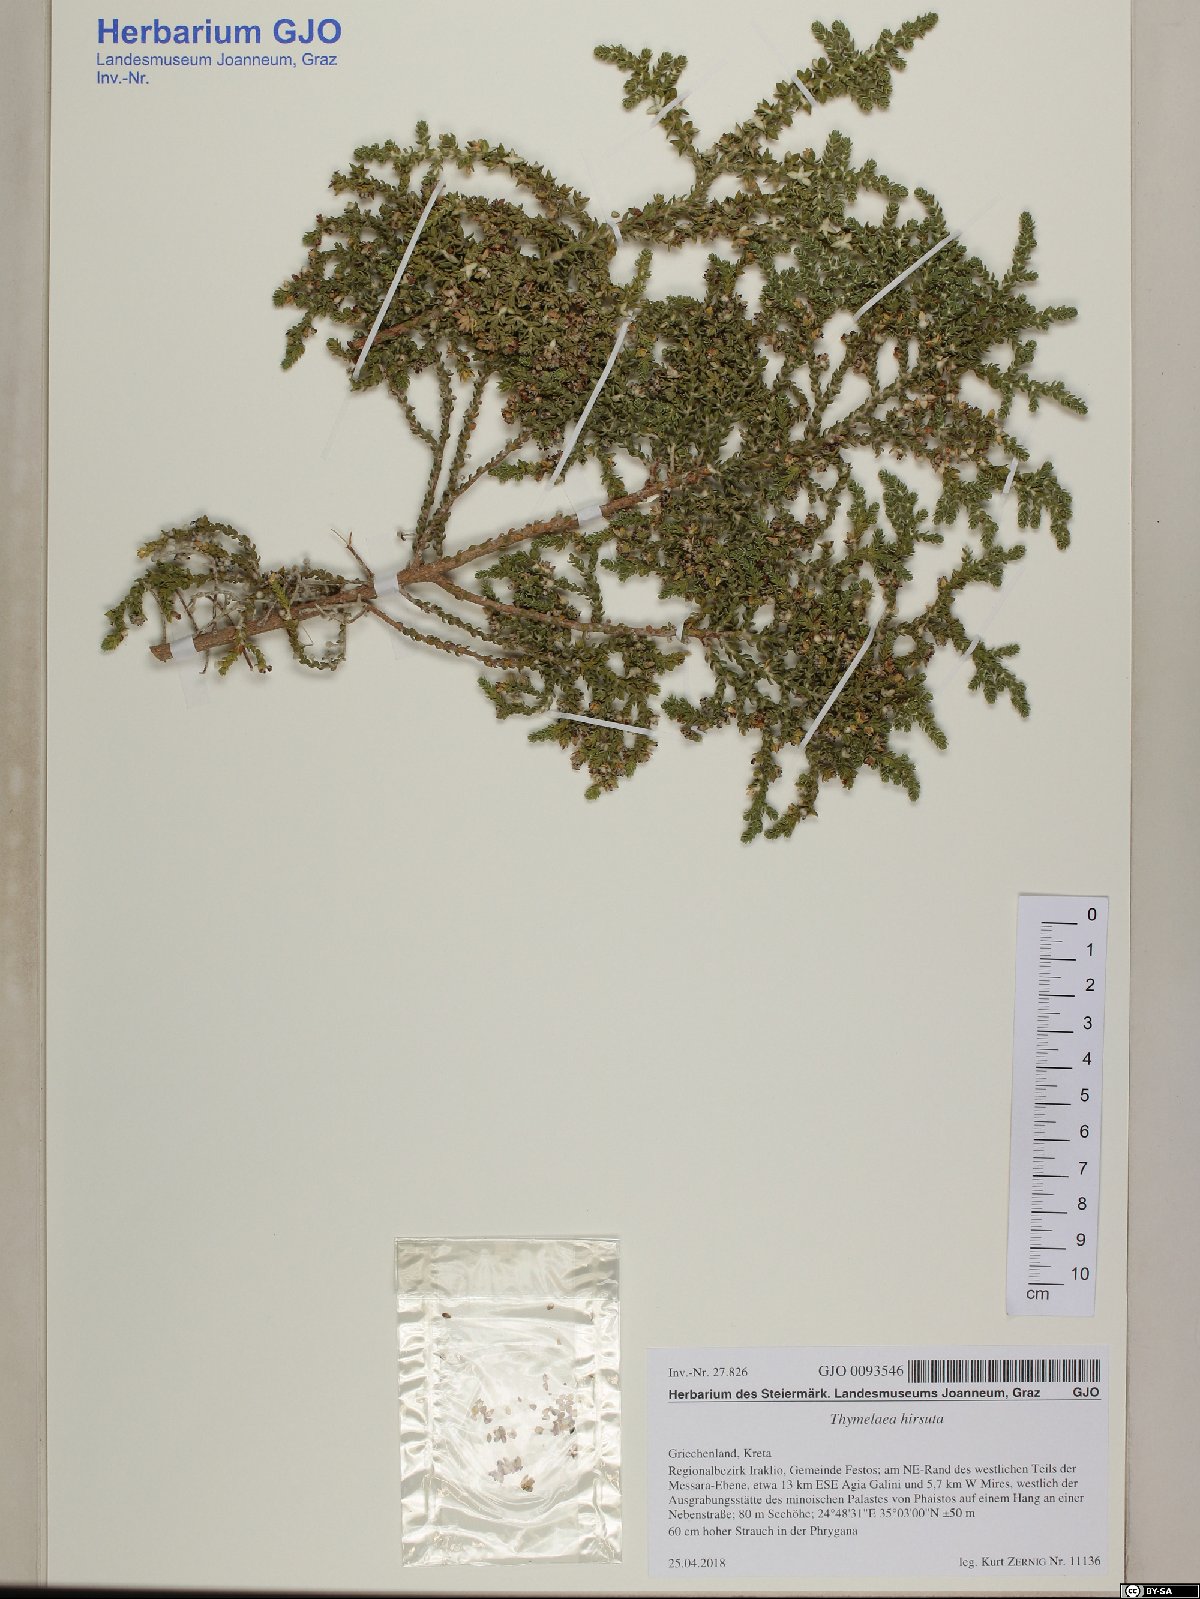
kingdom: Plantae
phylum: Tracheophyta
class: Magnoliopsida
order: Malvales
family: Thymelaeaceae
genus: Thymelaea
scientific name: Thymelaea hirsuta
